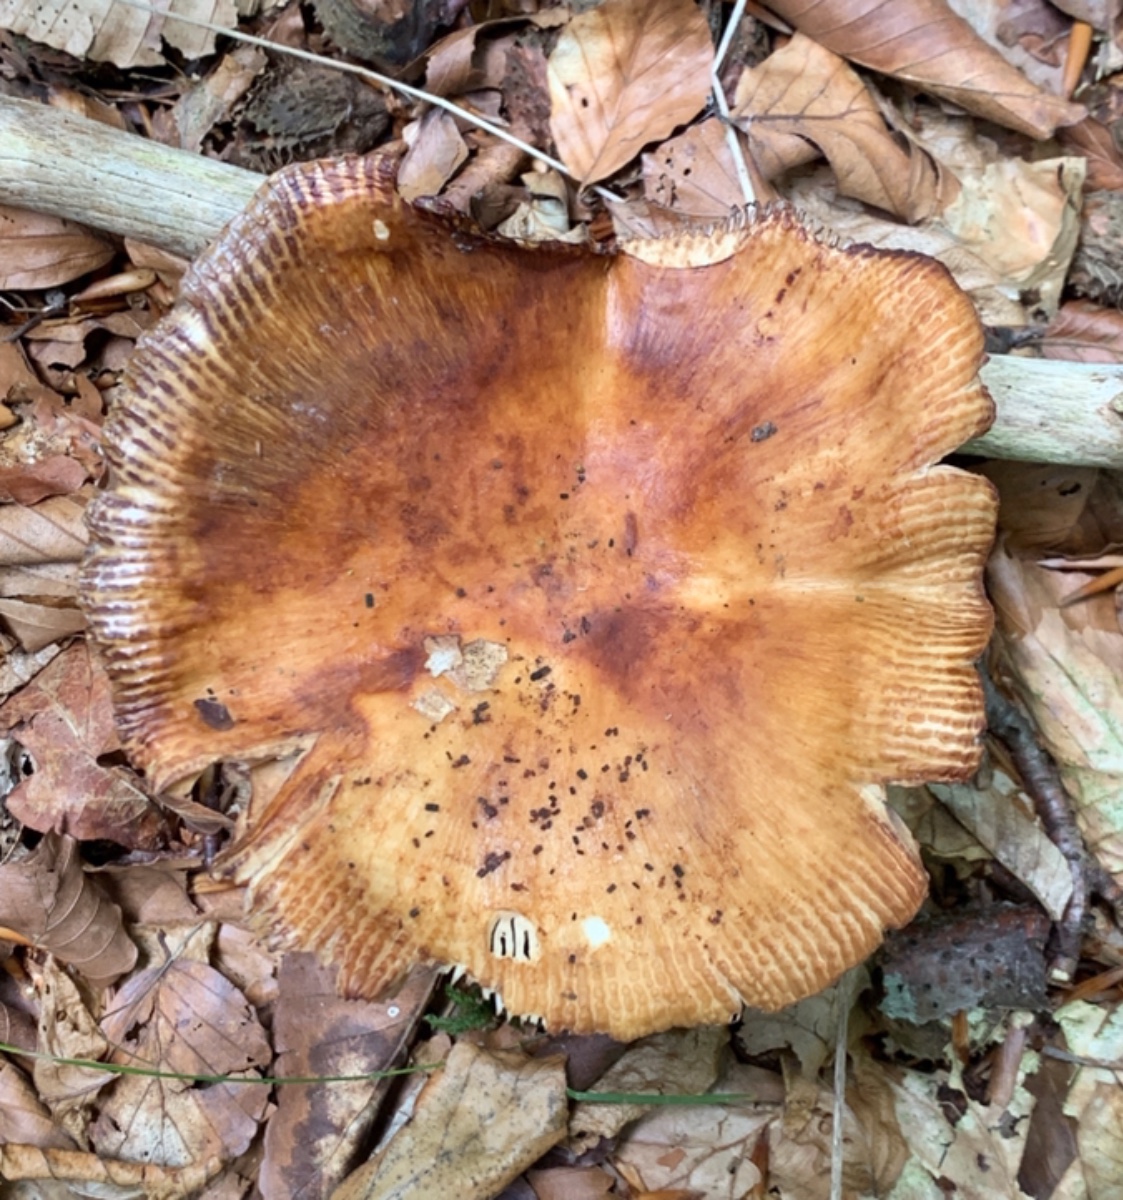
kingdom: Fungi
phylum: Basidiomycota
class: Agaricomycetes
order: Russulales
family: Russulaceae
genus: Russula
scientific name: Russula foetens
